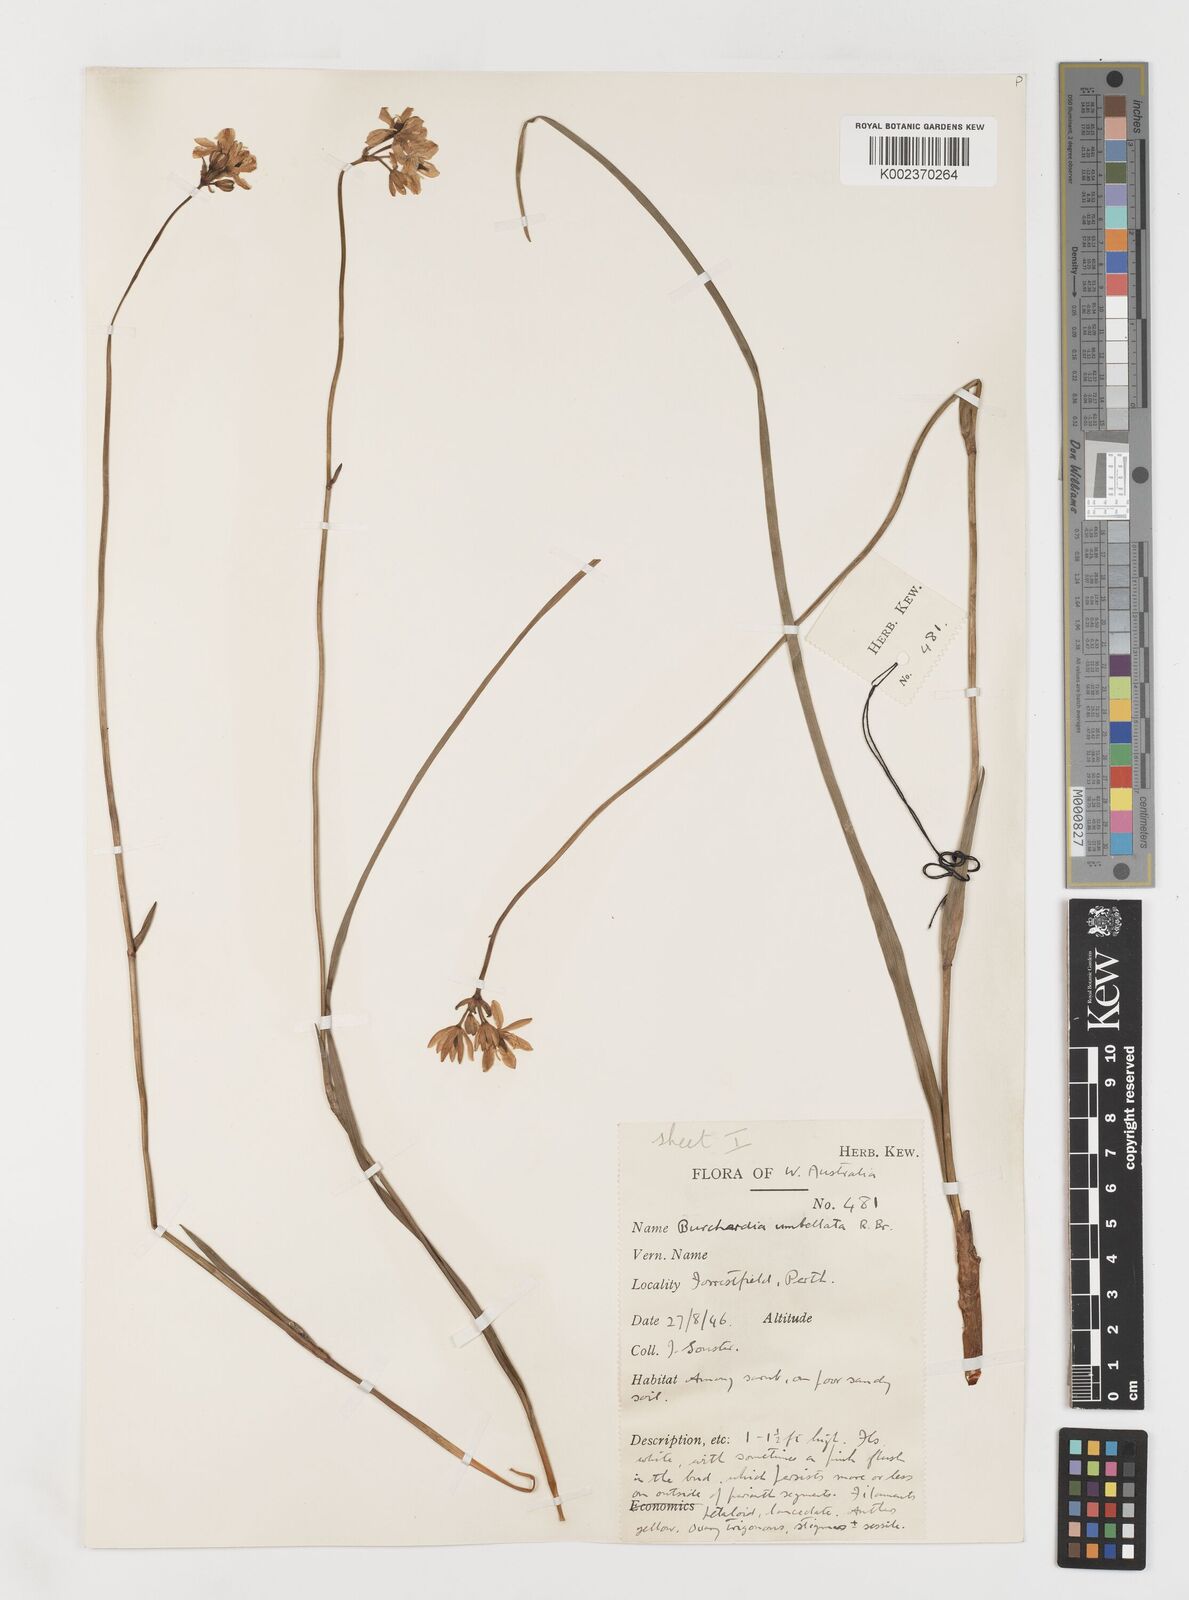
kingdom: Plantae
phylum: Tracheophyta
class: Liliopsida
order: Liliales
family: Colchicaceae
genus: Burchardia
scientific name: Burchardia umbellata
